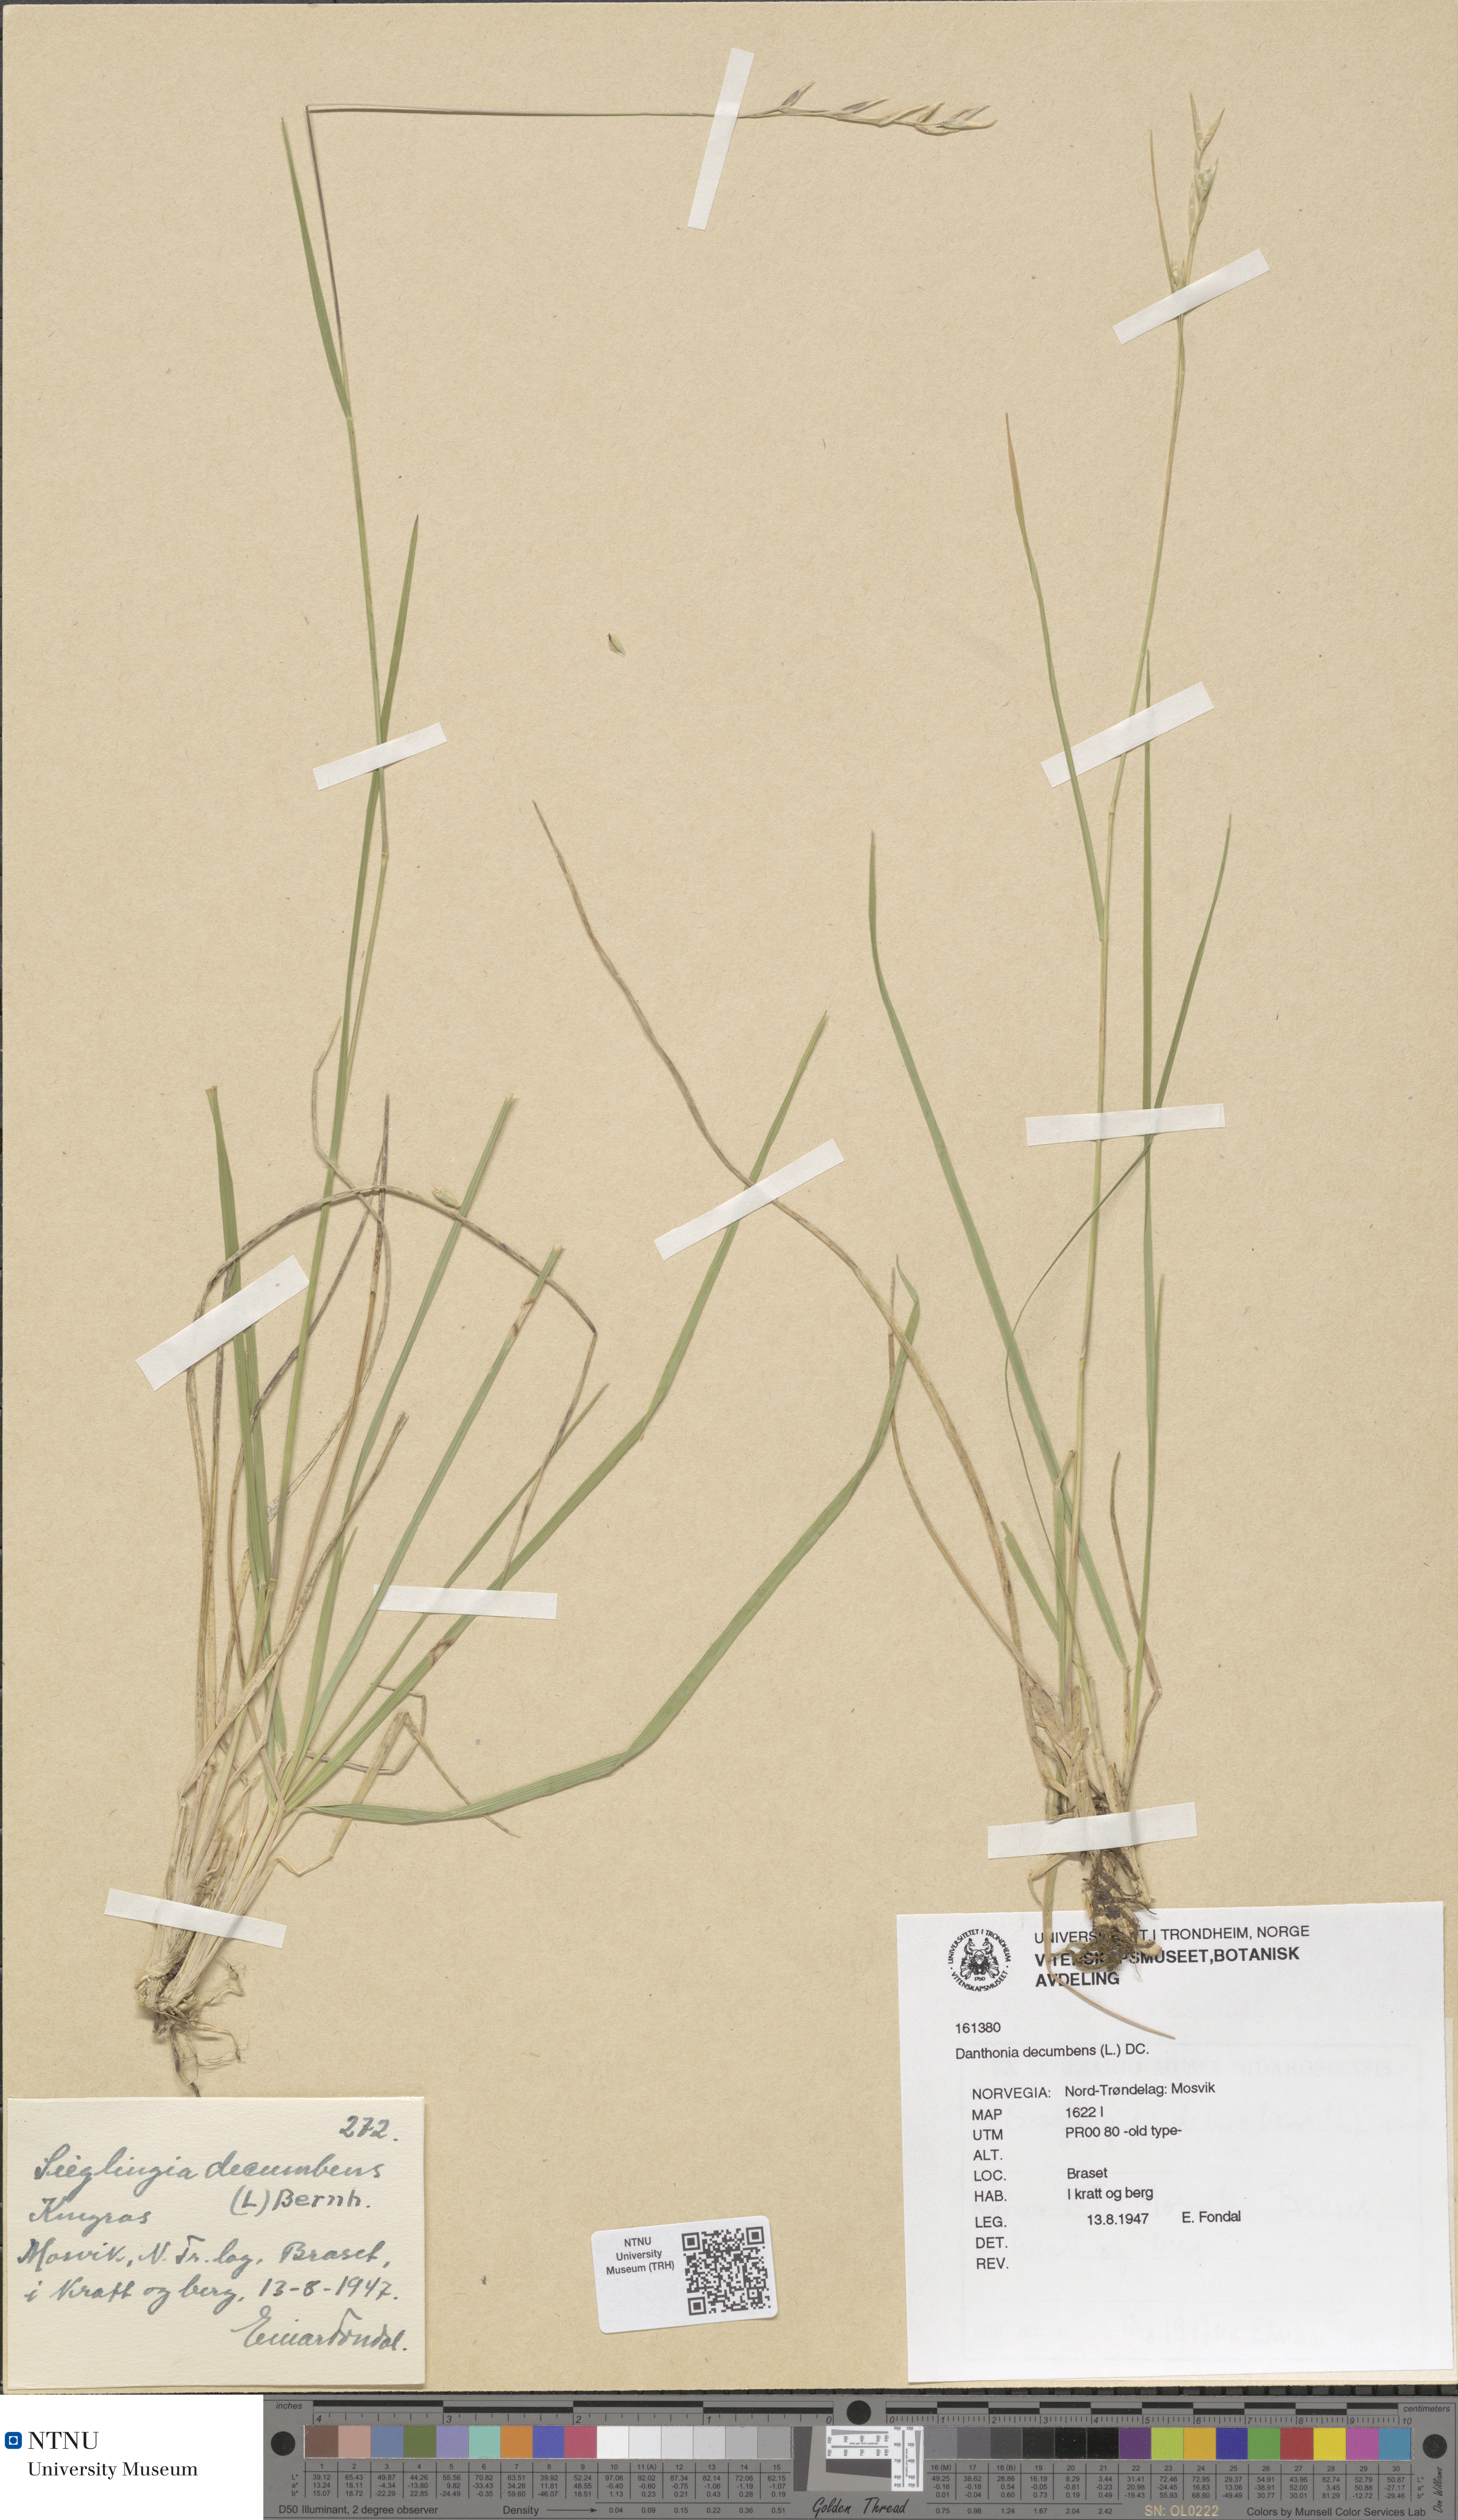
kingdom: Plantae
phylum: Tracheophyta
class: Liliopsida
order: Poales
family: Poaceae
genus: Danthonia
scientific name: Danthonia decumbens
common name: Common heathgrass
